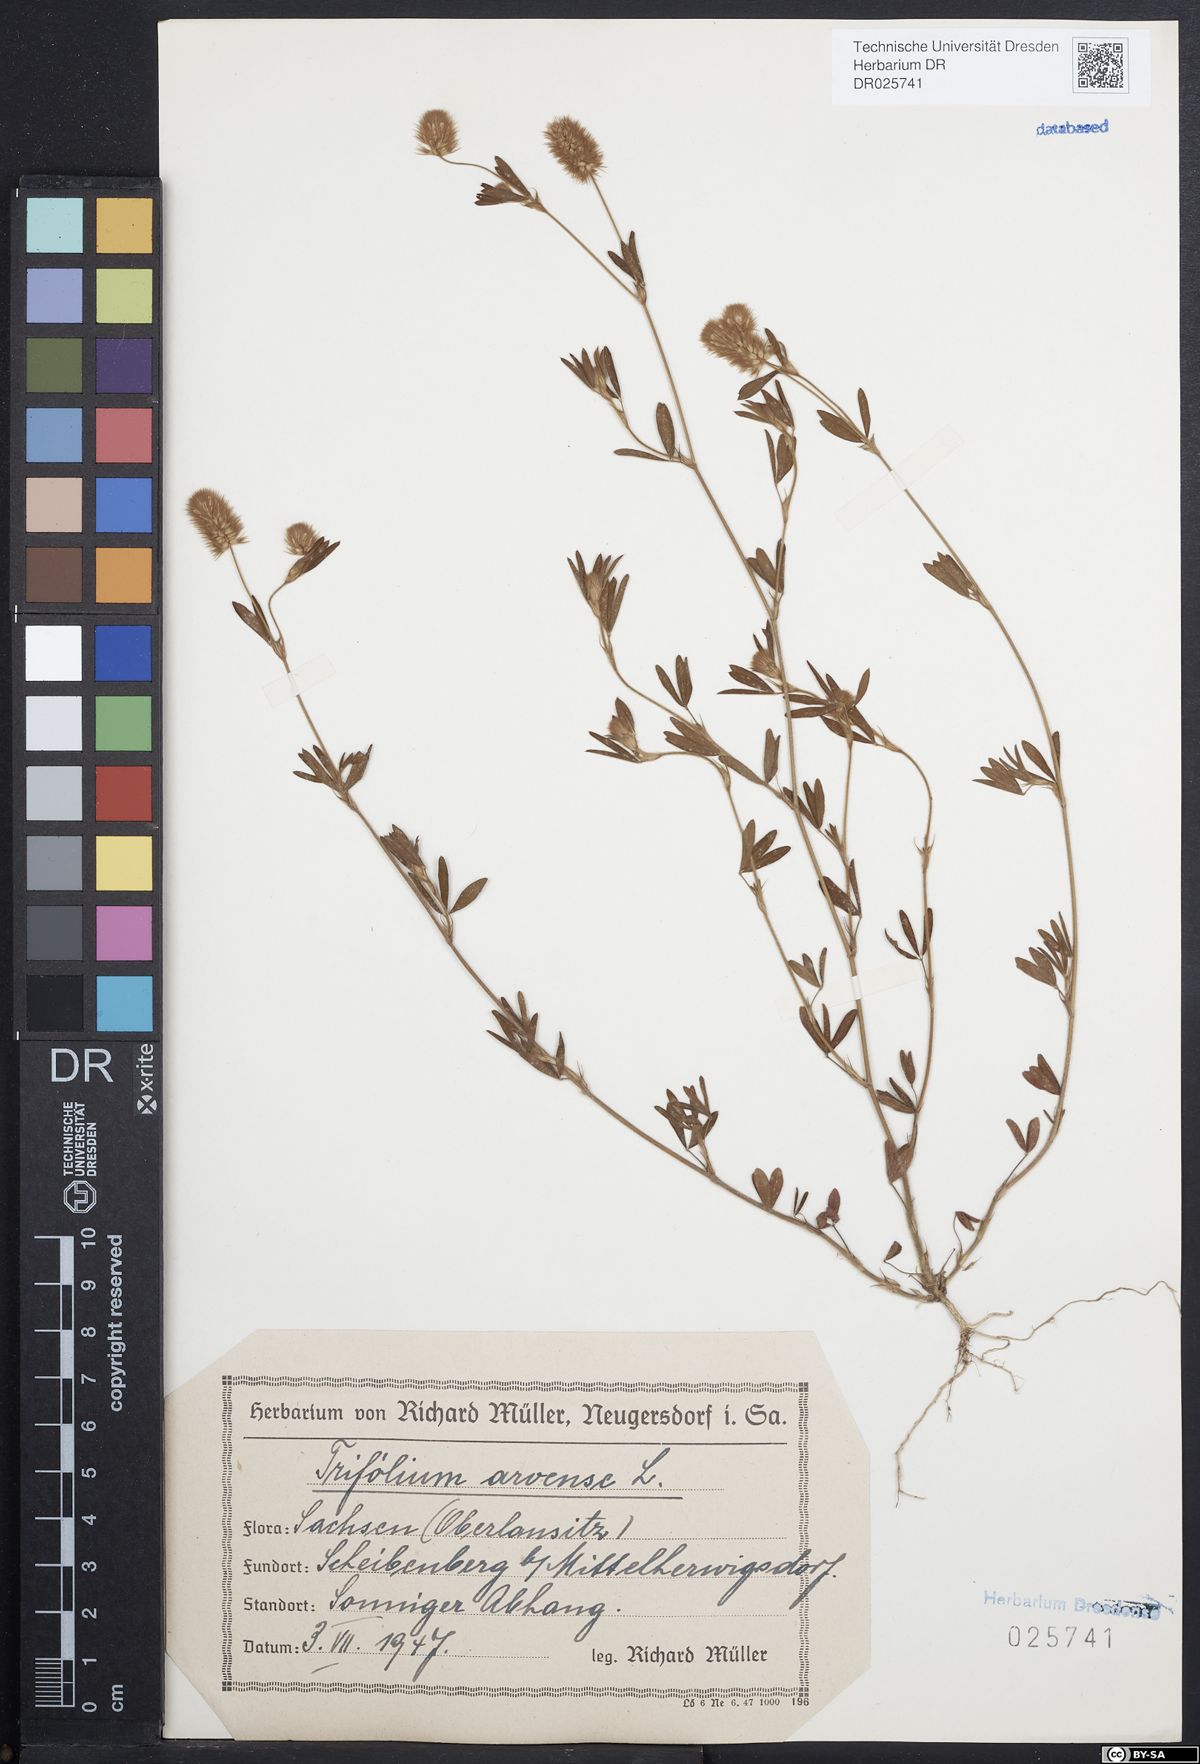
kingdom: Plantae
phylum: Tracheophyta
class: Magnoliopsida
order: Fabales
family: Fabaceae
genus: Trifolium
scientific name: Trifolium arvense
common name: Hare's-foot clover
